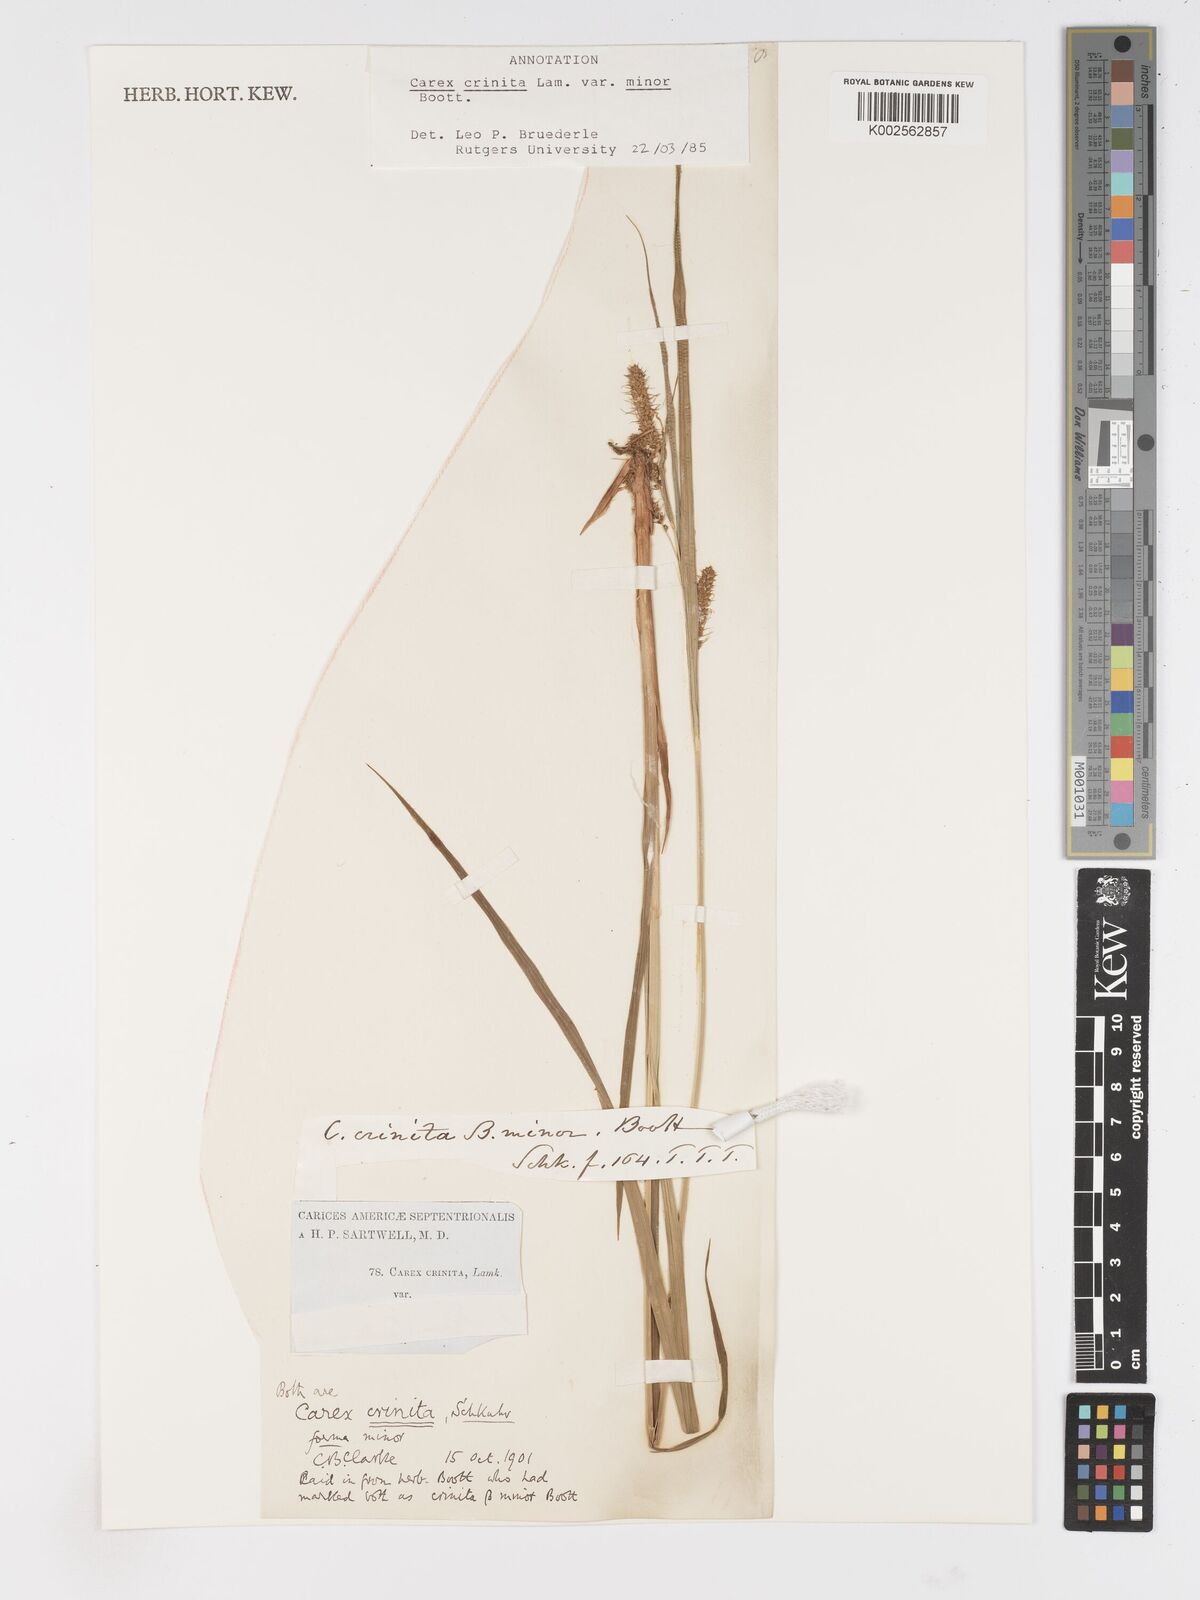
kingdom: Plantae
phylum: Tracheophyta
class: Liliopsida
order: Poales
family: Cyperaceae
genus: Carex
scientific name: Carex crinita
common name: Fringed sedge
